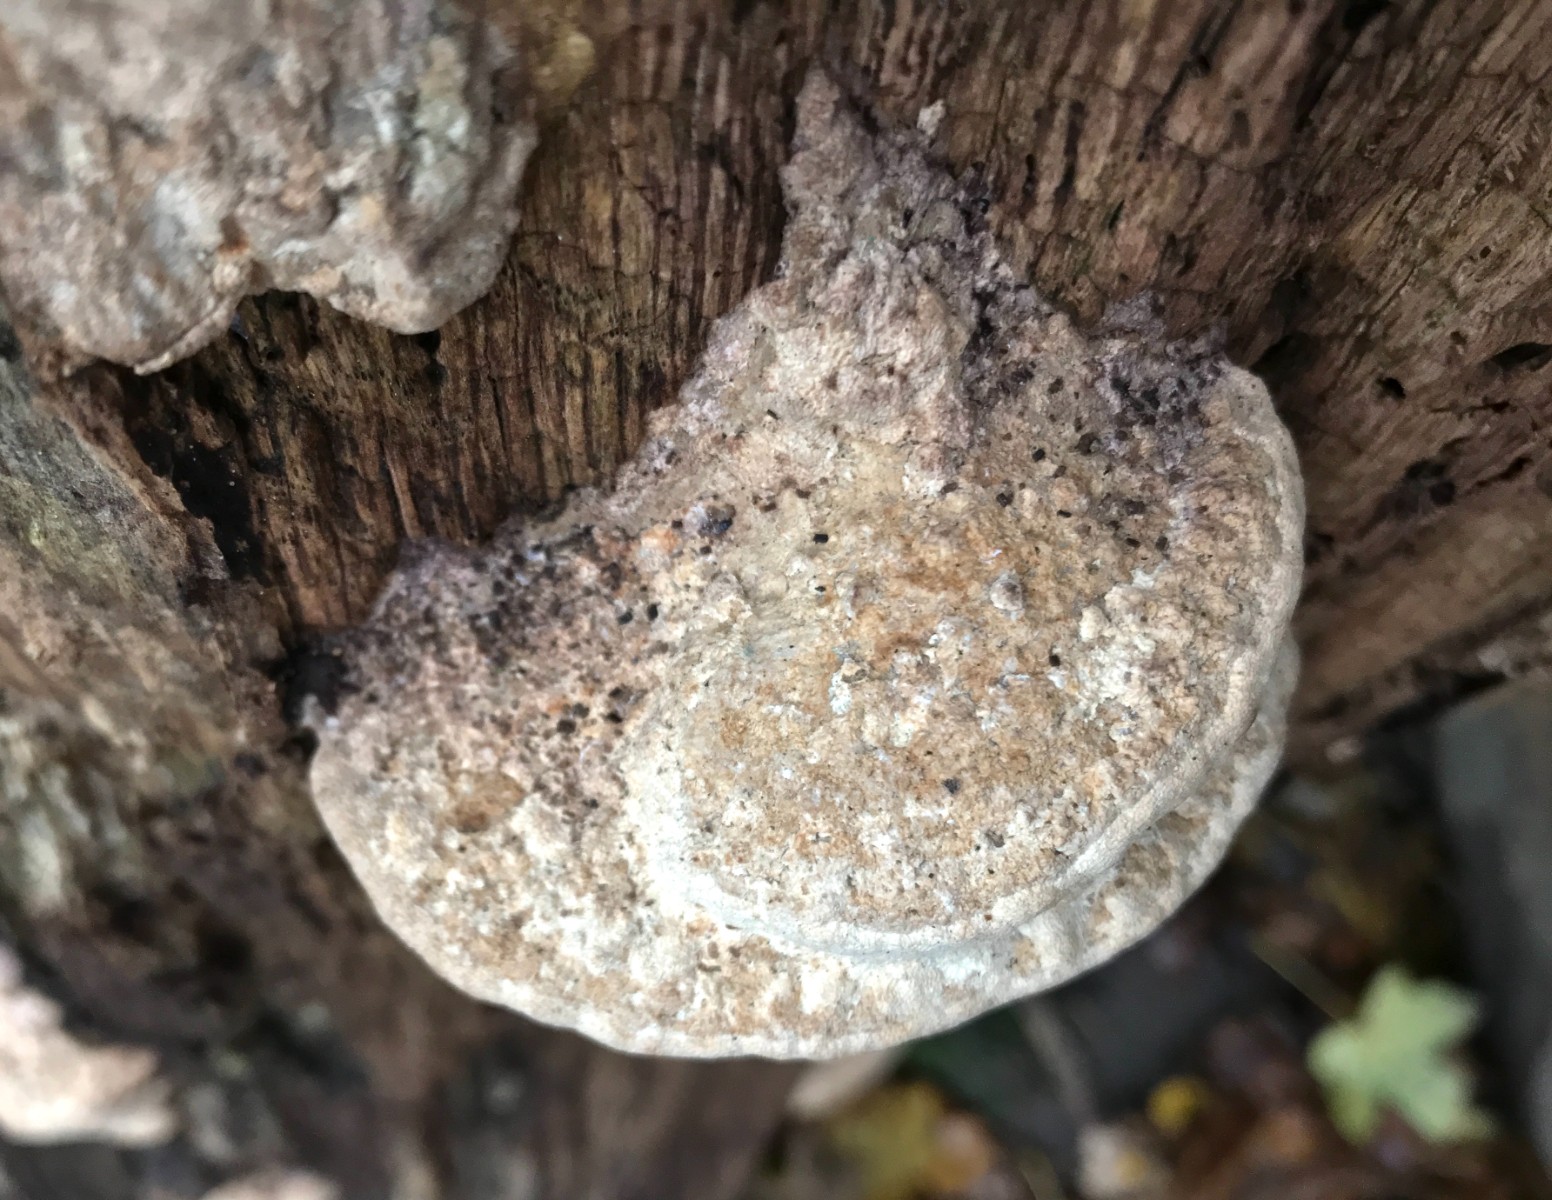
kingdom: Fungi
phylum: Basidiomycota
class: Agaricomycetes
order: Polyporales
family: Fomitopsidaceae
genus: Daedalea
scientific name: Daedalea quercina
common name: ege-labyrintsvamp
